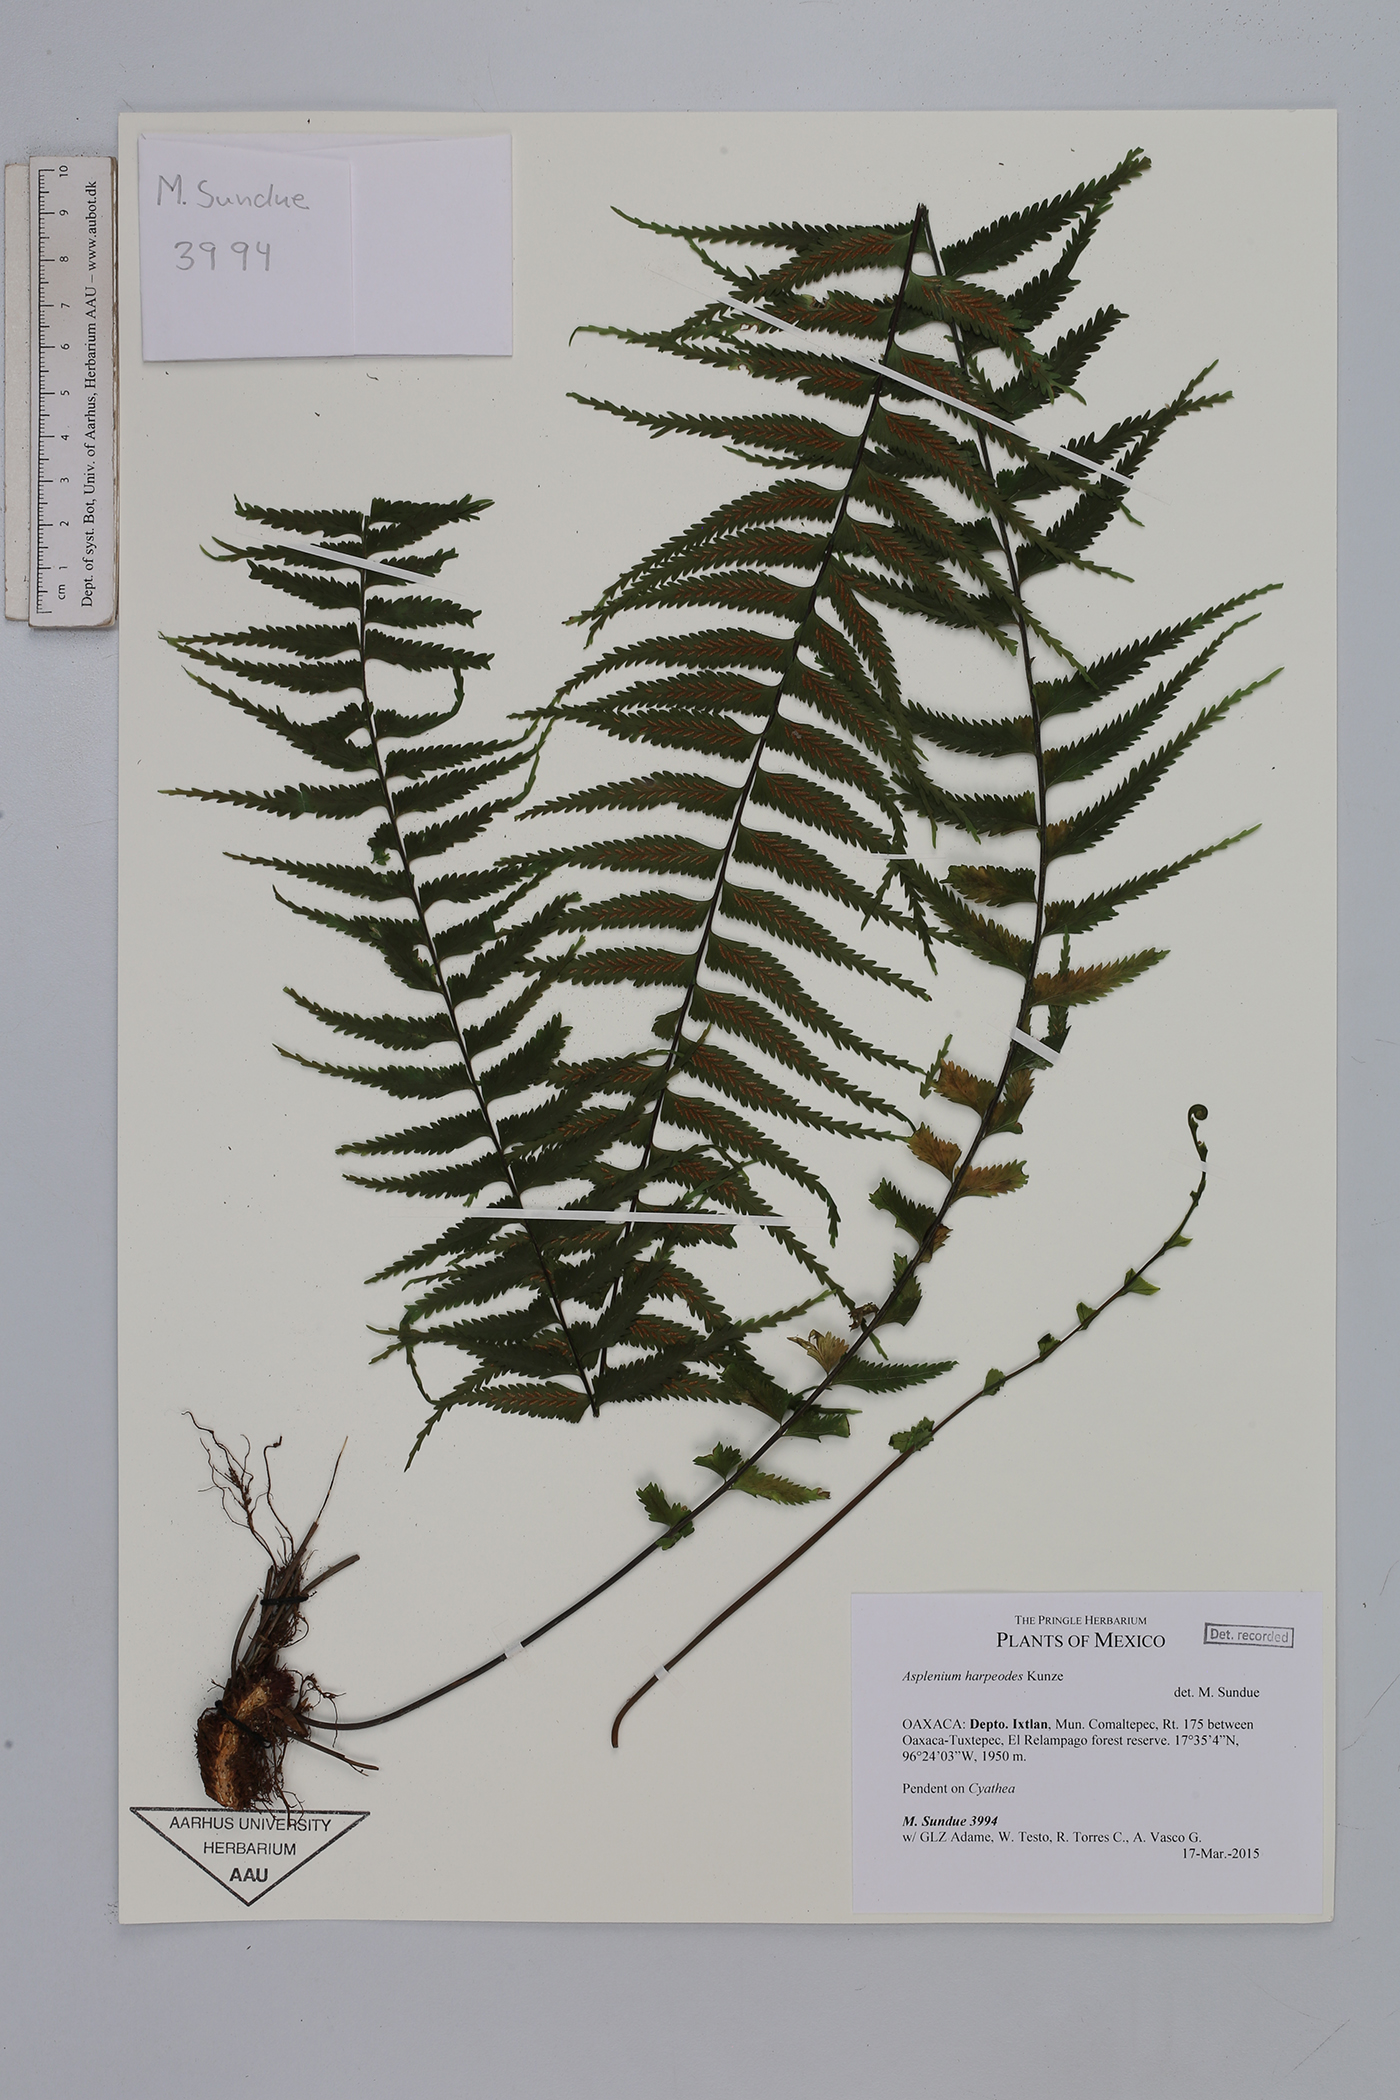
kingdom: Plantae
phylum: Tracheophyta
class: Polypodiopsida
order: Polypodiales
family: Aspleniaceae
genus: Asplenium
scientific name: Asplenium harpeodes
